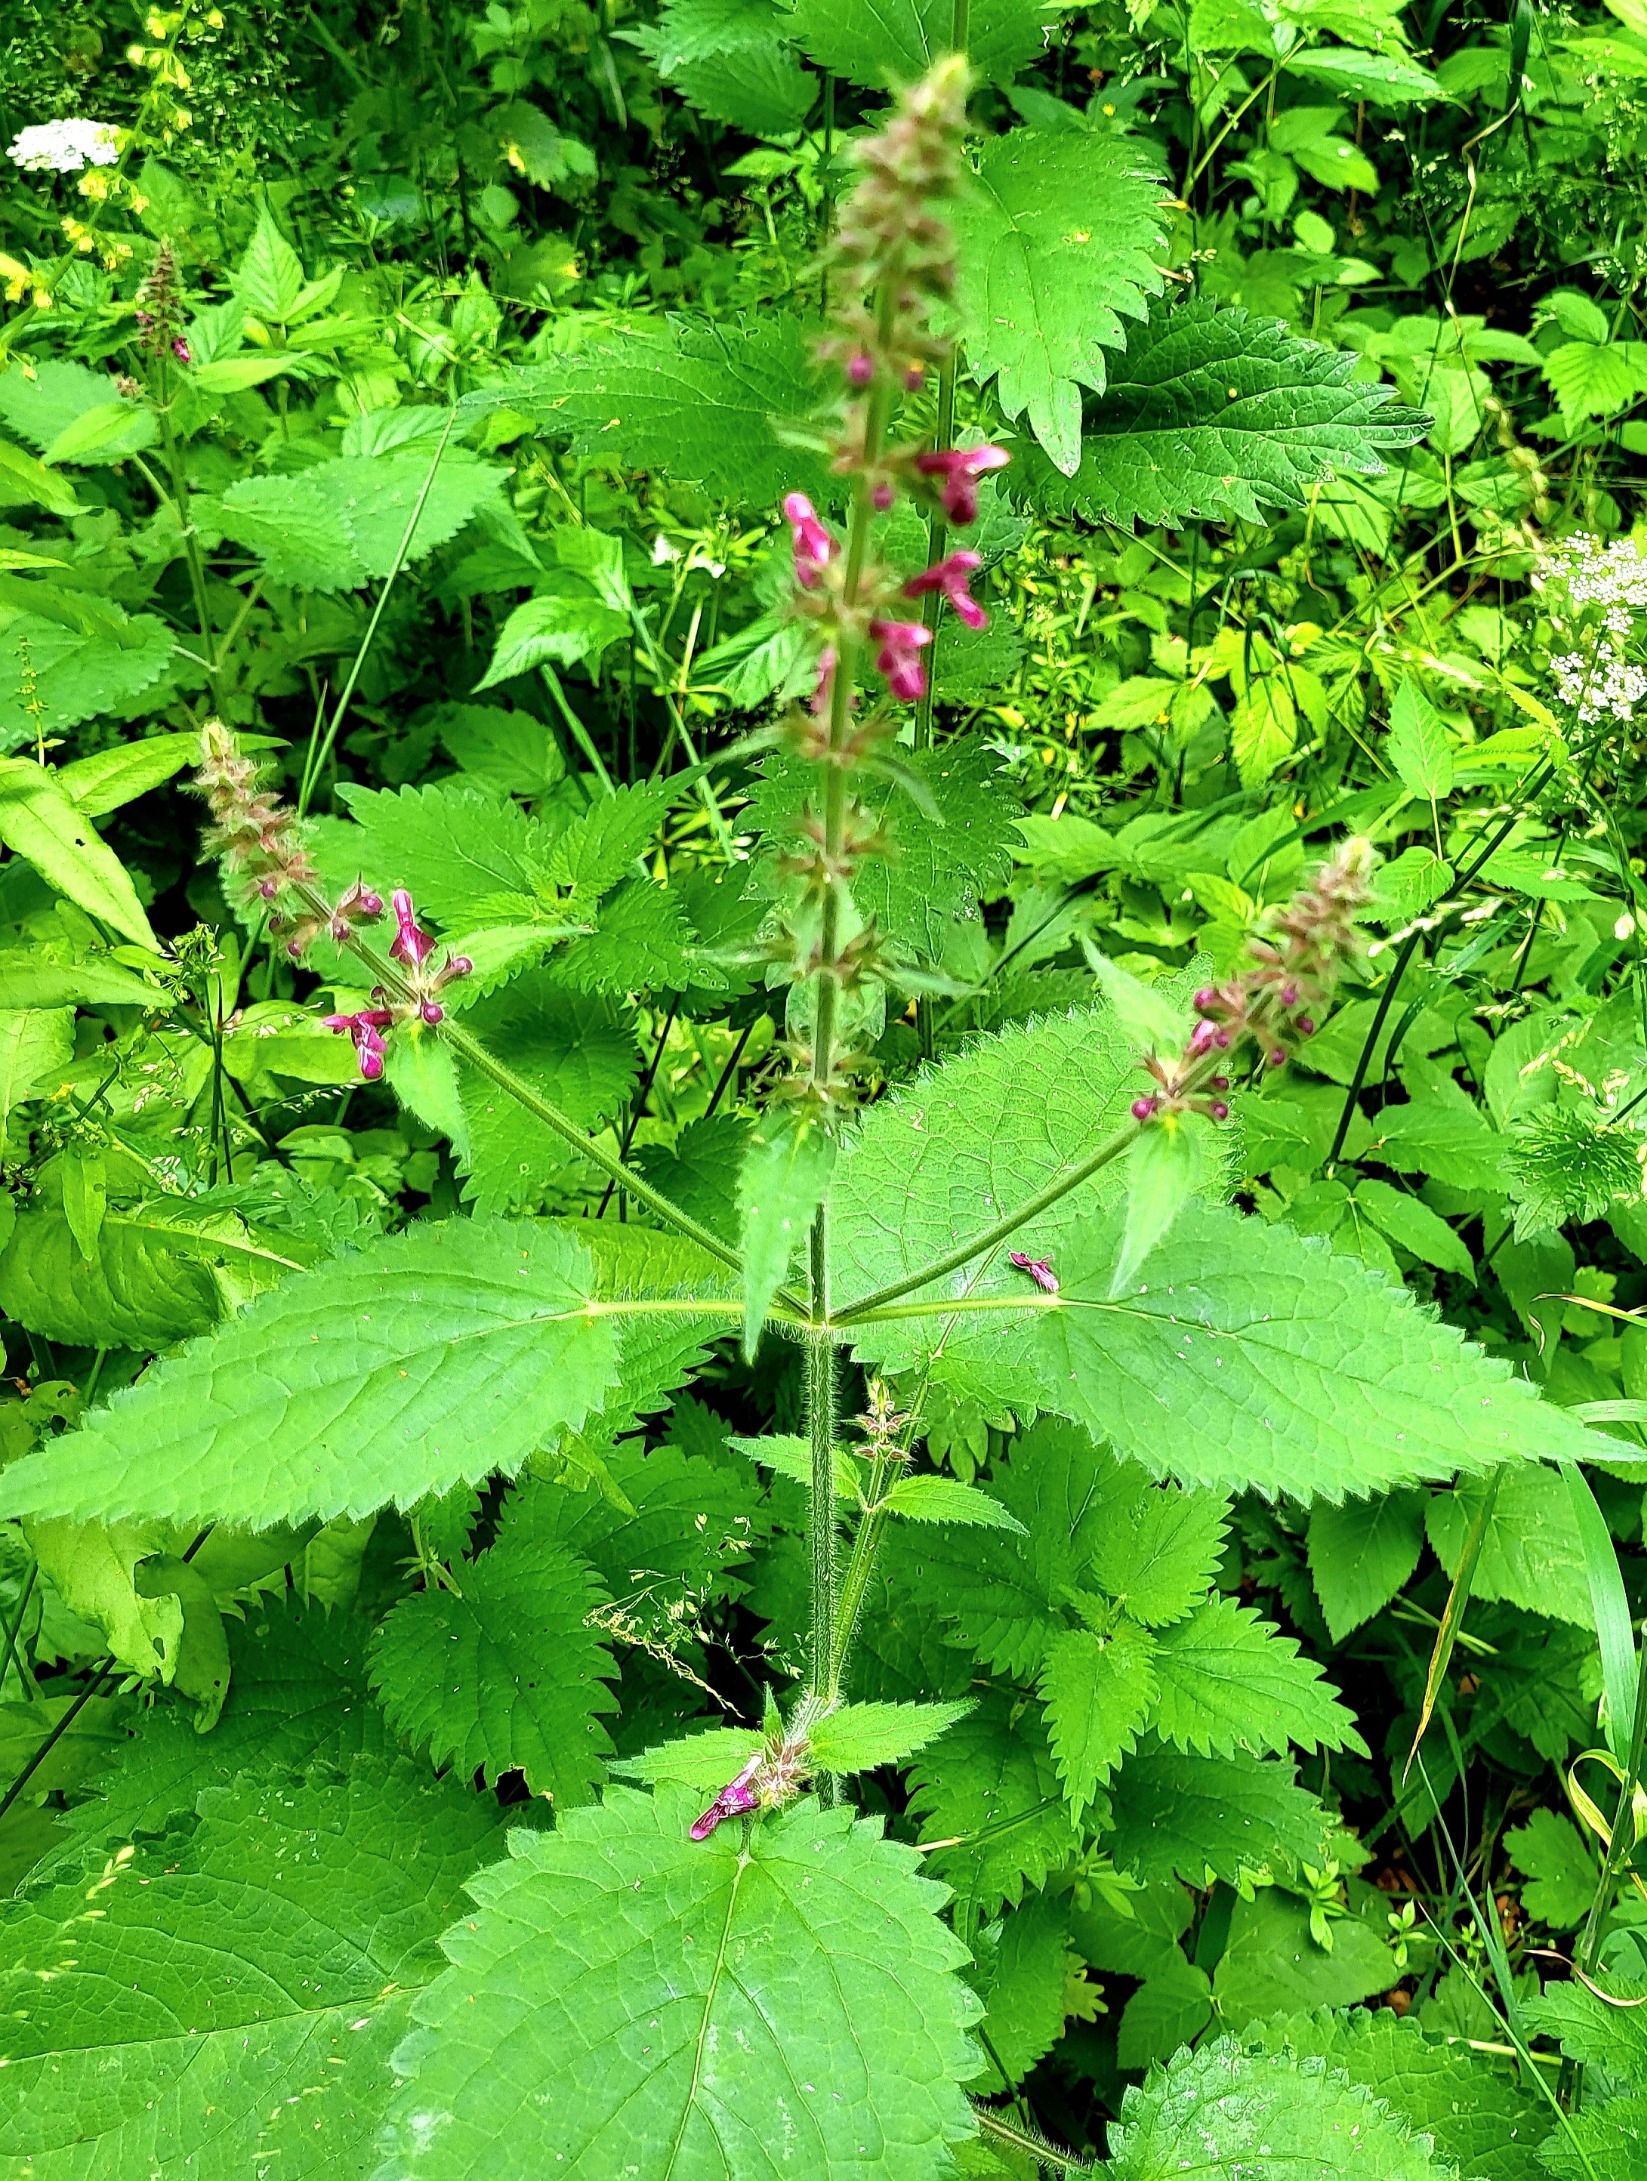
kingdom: Plantae
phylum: Tracheophyta
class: Magnoliopsida
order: Lamiales
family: Lamiaceae
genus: Stachys
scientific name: Stachys sylvatica
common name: Skov-galtetand
